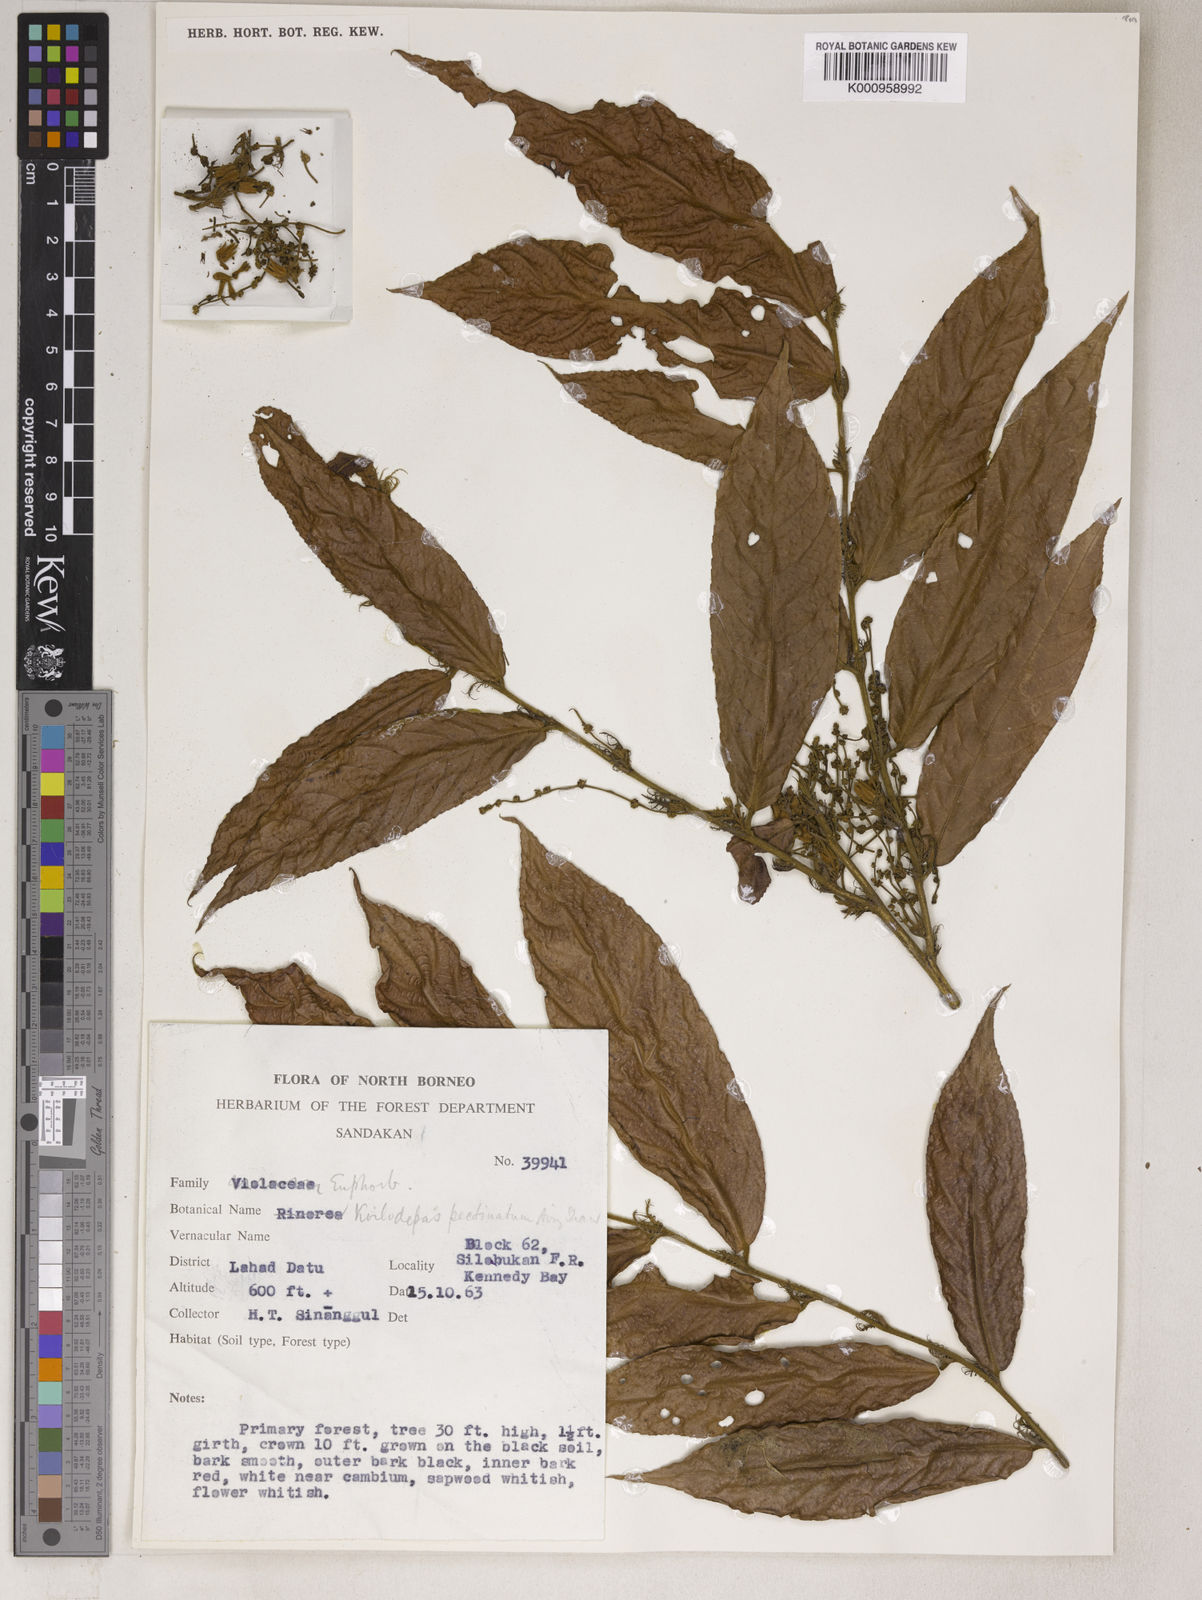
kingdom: Plantae
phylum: Tracheophyta
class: Magnoliopsida
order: Malpighiales
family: Euphorbiaceae
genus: Koilodepas
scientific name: Koilodepas pectinatum
